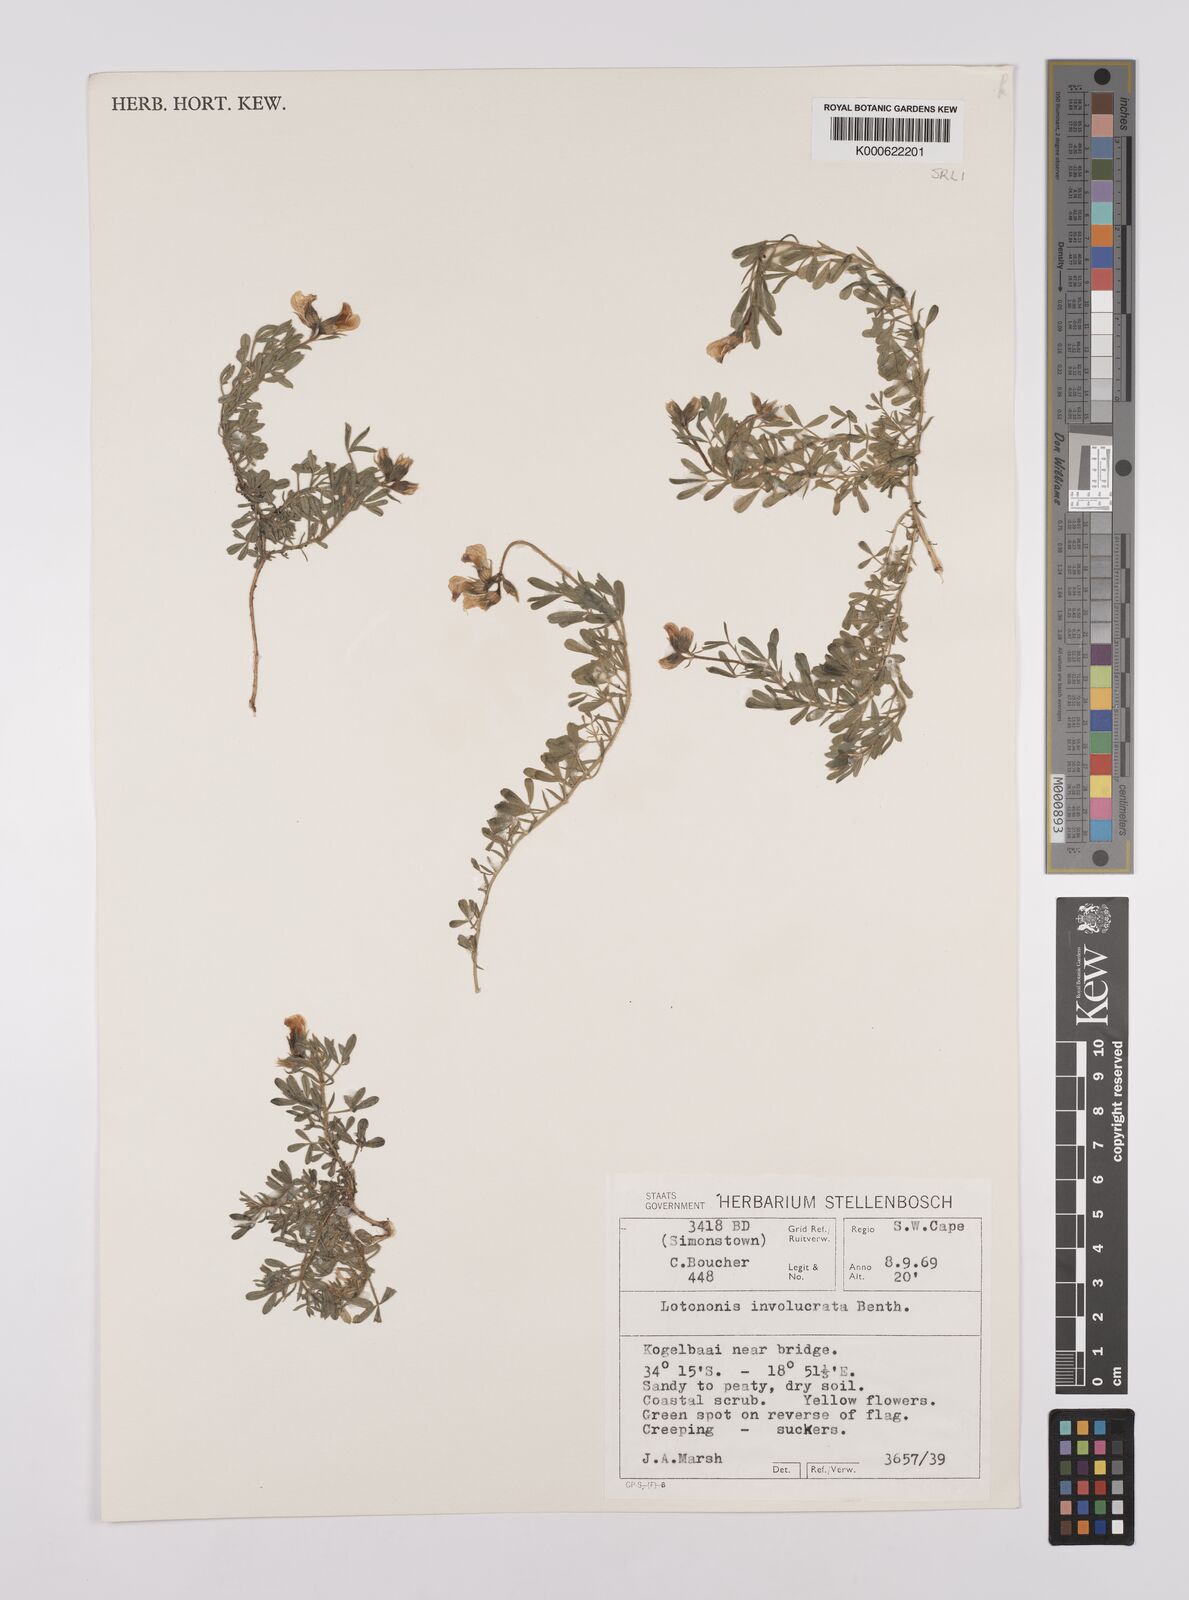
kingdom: Plantae
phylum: Tracheophyta
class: Magnoliopsida
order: Fabales
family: Fabaceae
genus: Lotononis
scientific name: Lotononis involucrata
